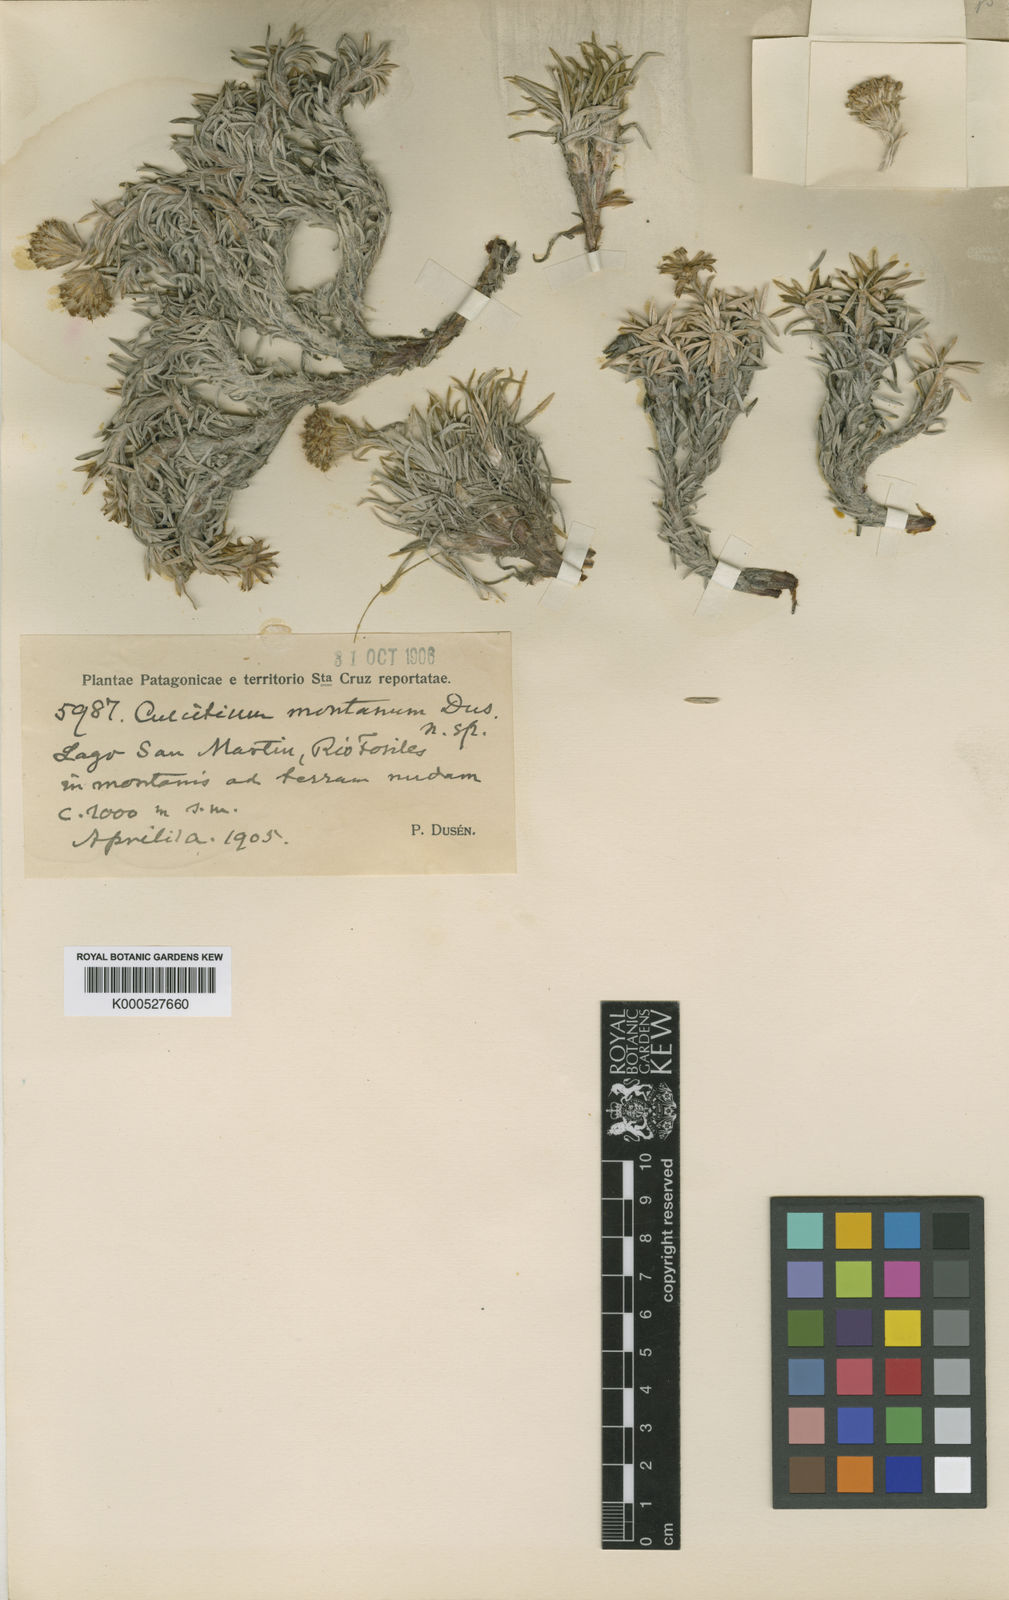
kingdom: Plantae
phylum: Tracheophyta
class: Magnoliopsida
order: Asterales
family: Asteraceae
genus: Senecio
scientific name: Senecio
